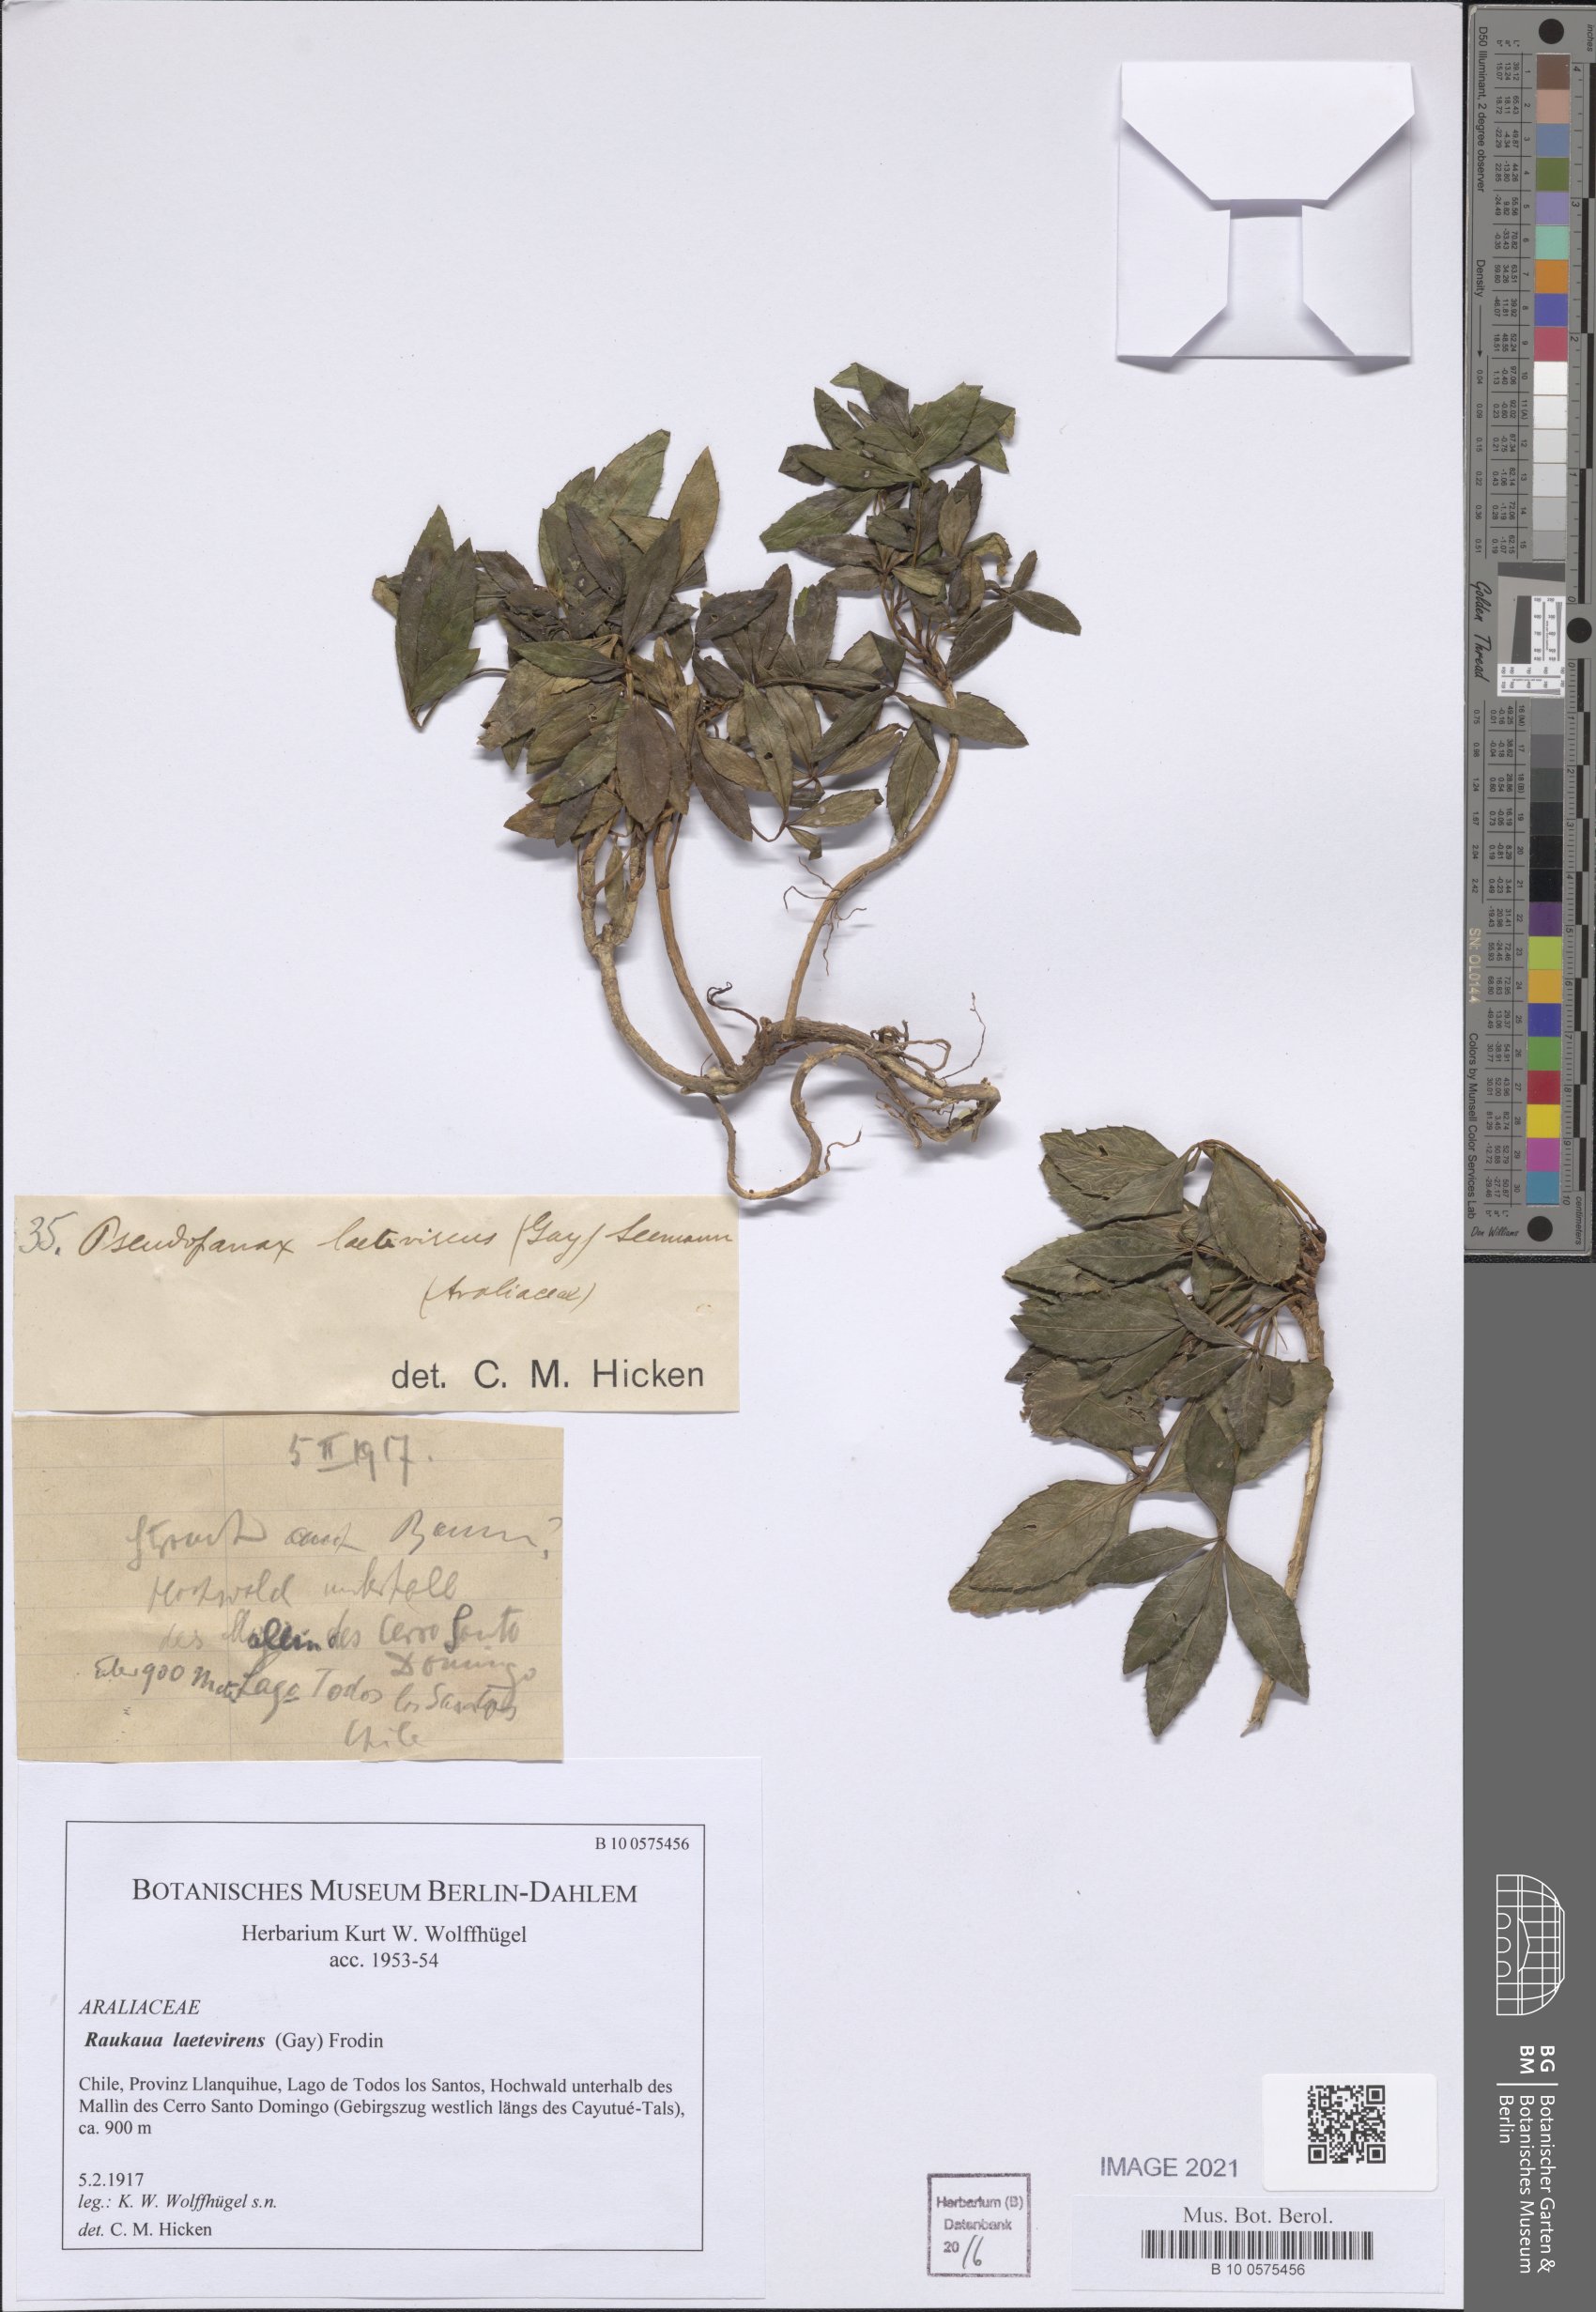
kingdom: Plantae
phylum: Tracheophyta
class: Magnoliopsida
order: Apiales
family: Araliaceae
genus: Raukaua
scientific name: Raukaua laetevirens
